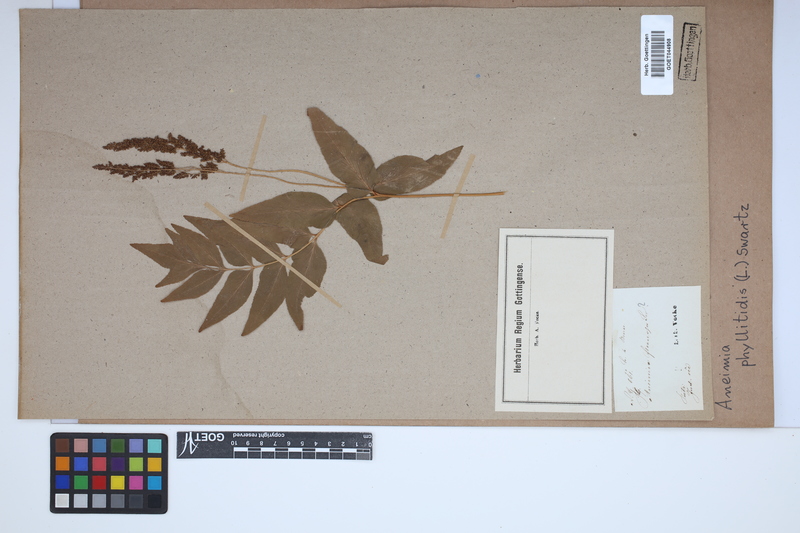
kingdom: Plantae
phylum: Tracheophyta
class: Polypodiopsida
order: Schizaeales
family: Anemiaceae
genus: Anemia
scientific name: Anemia phyllitidis
